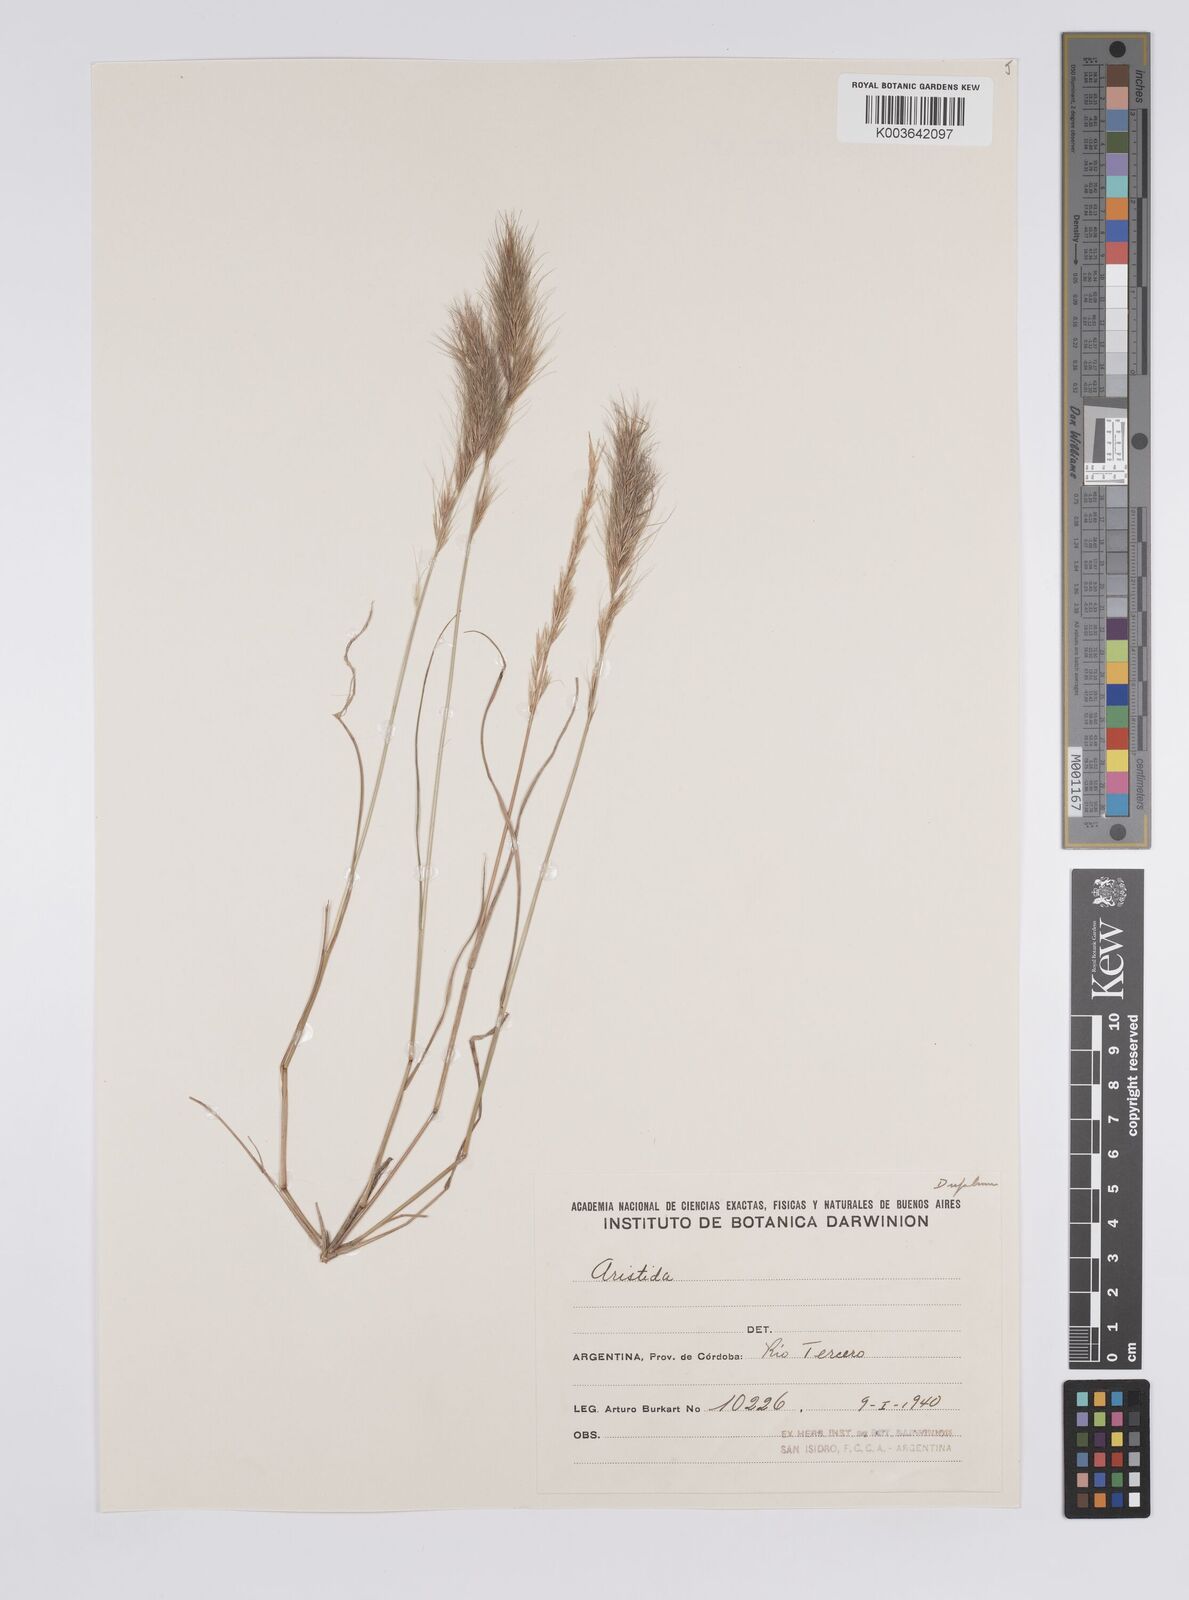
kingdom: Plantae
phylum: Tracheophyta
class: Liliopsida
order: Poales
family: Poaceae
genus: Aristida
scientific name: Aristida adscensionis
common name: Sixweeks threeawn
